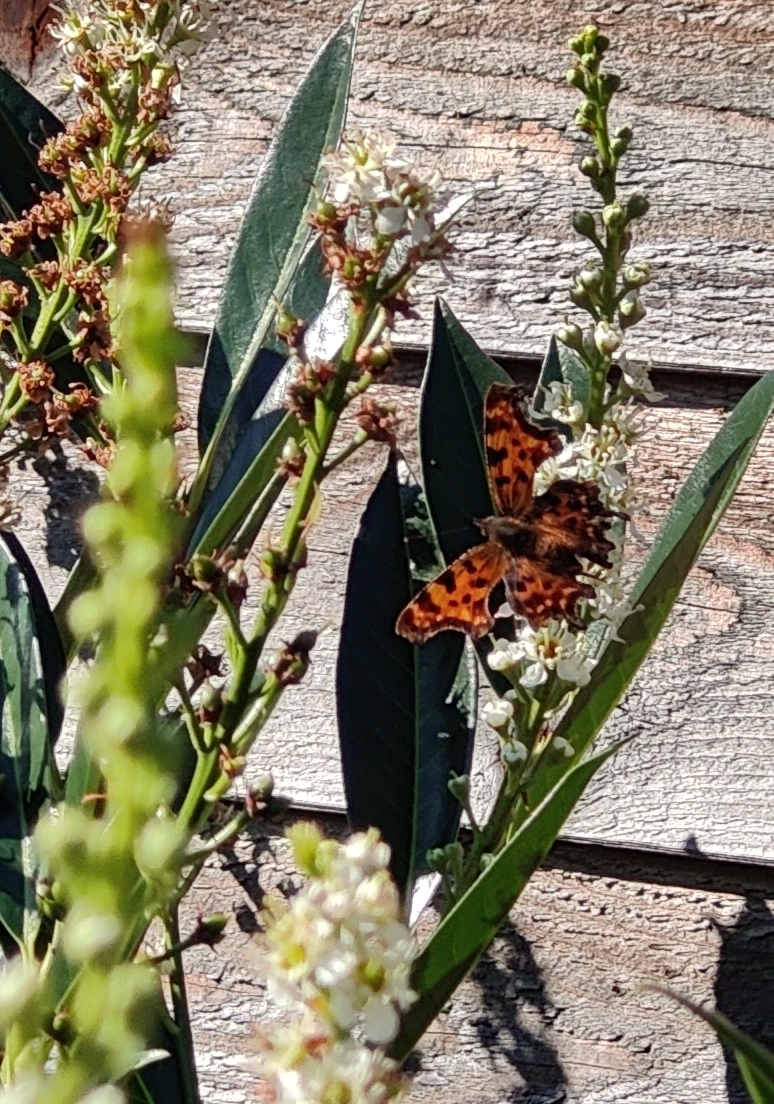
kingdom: Animalia
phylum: Arthropoda
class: Insecta
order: Lepidoptera
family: Nymphalidae
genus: Polygonia
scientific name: Polygonia c-album
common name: Det hvide C
